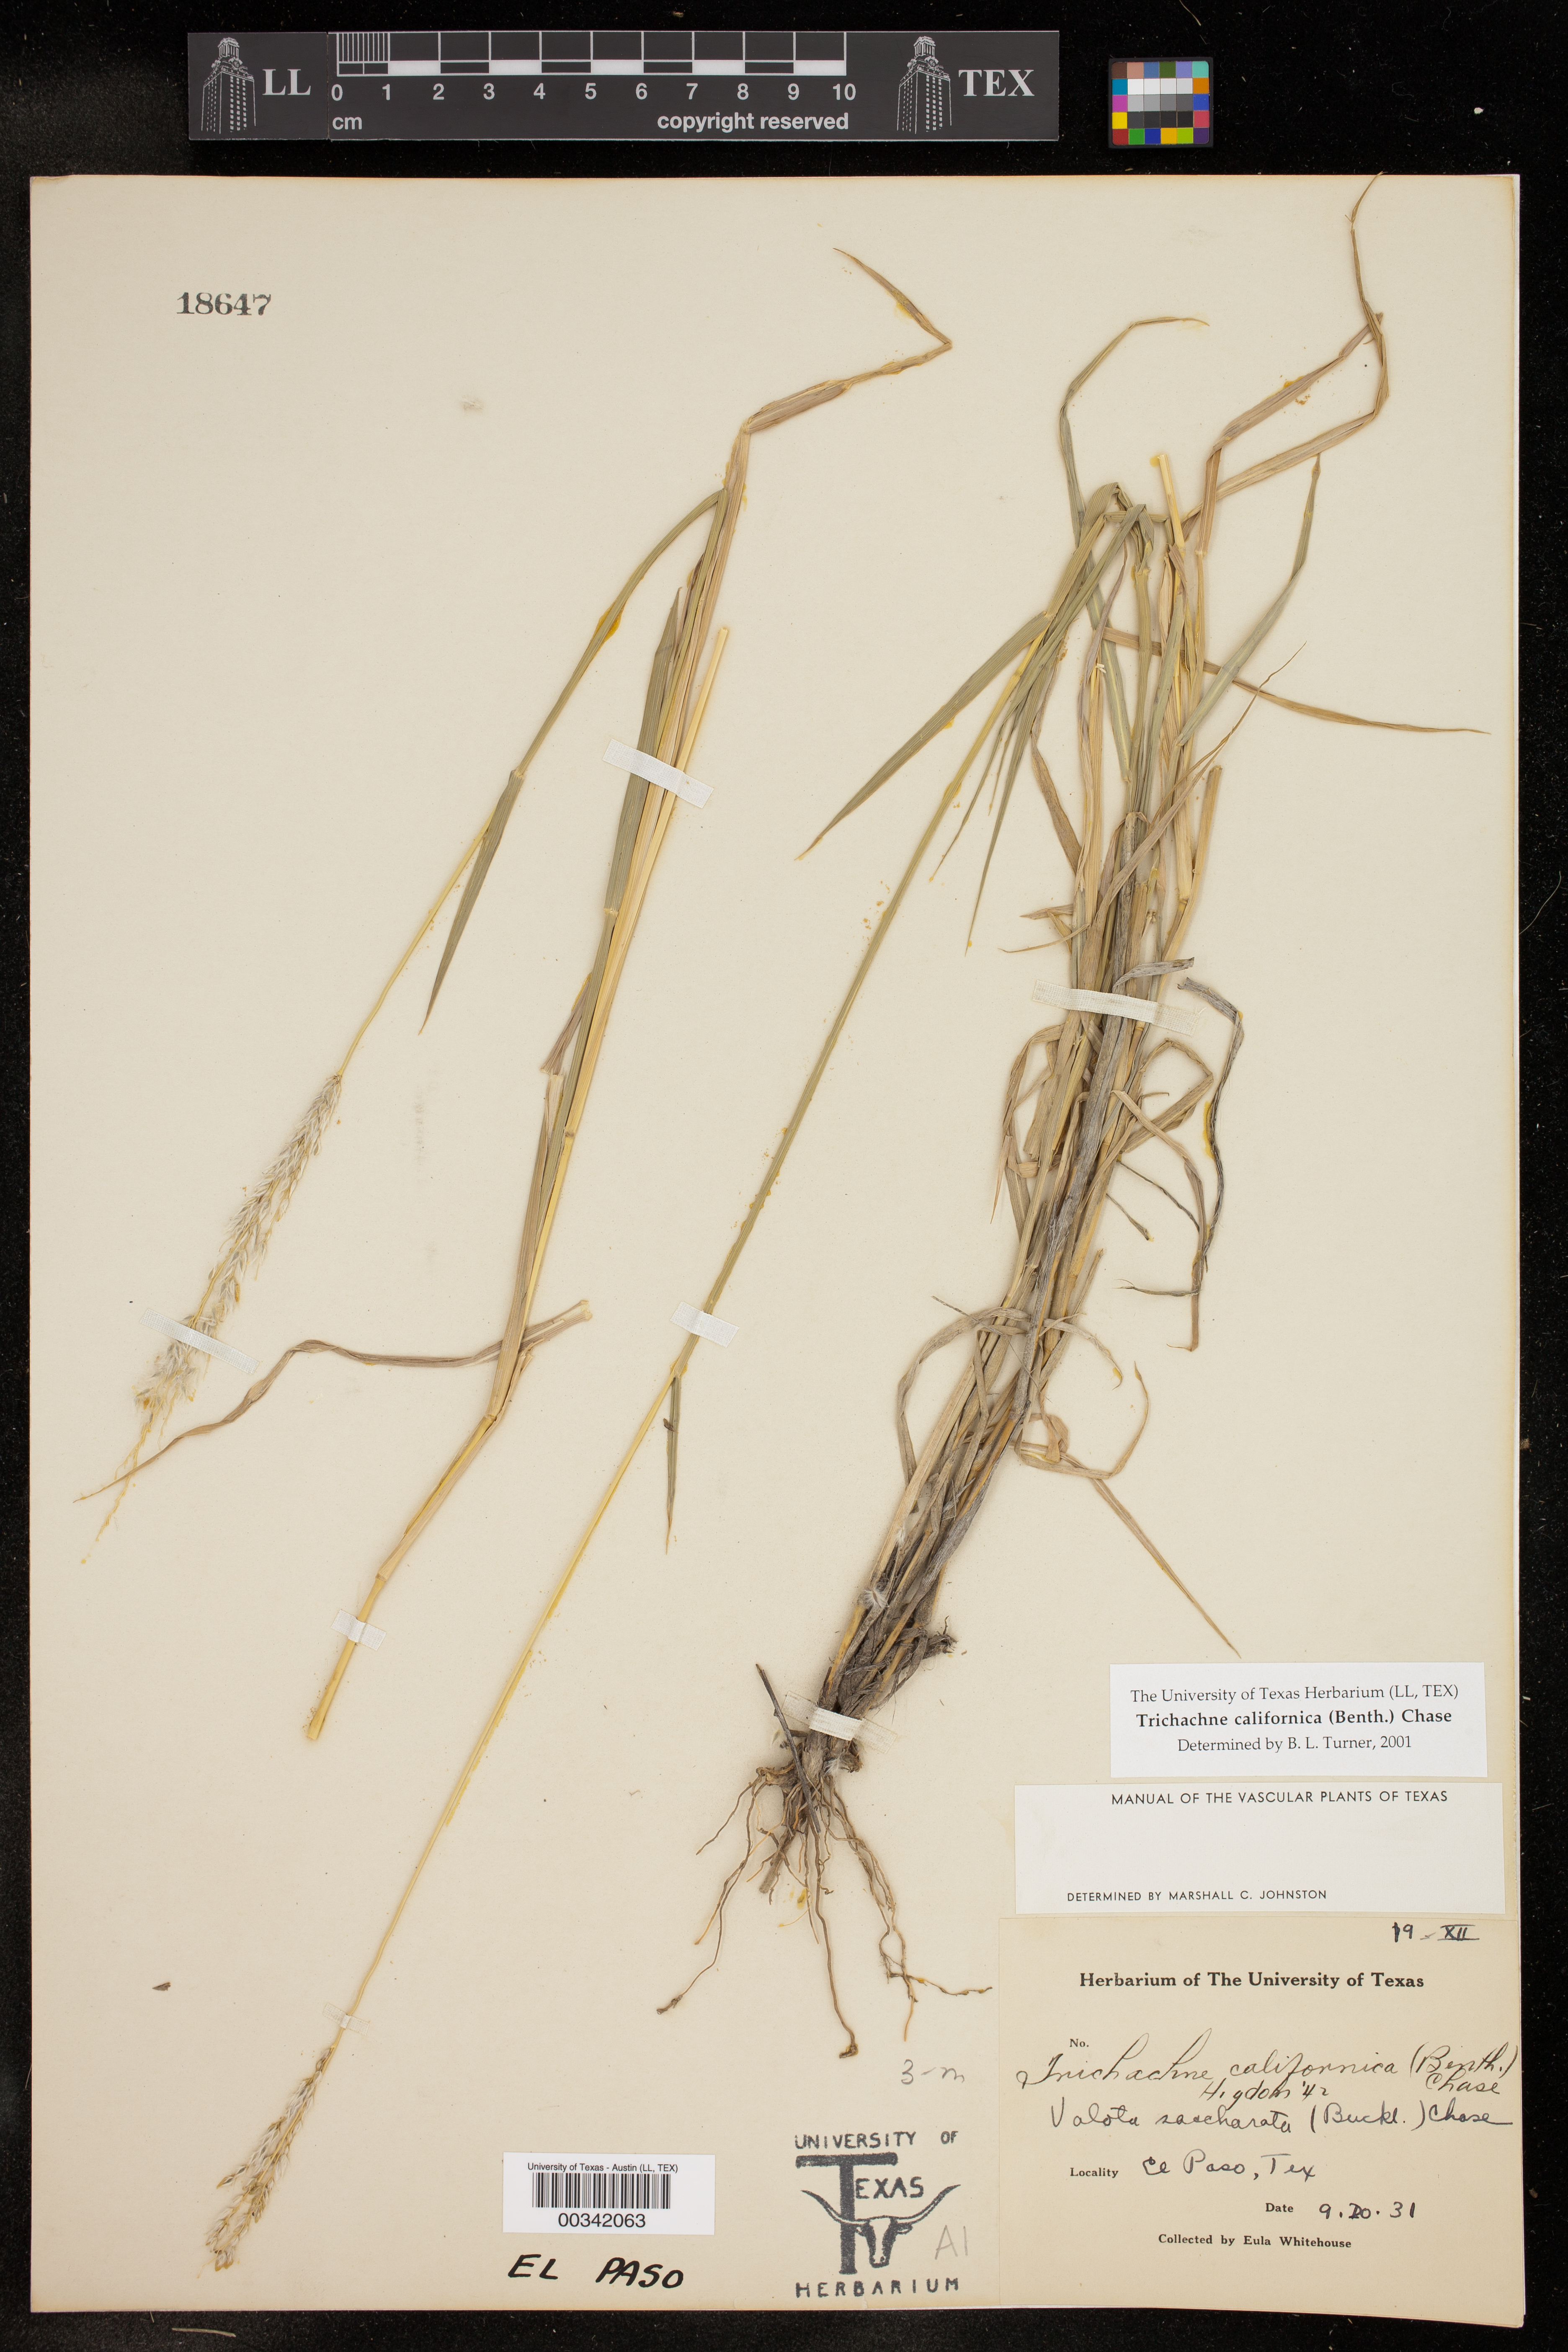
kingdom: Plantae
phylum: Tracheophyta
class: Liliopsida
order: Poales
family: Poaceae
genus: Digitaria
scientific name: Digitaria californica
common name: Arizona cottontop
